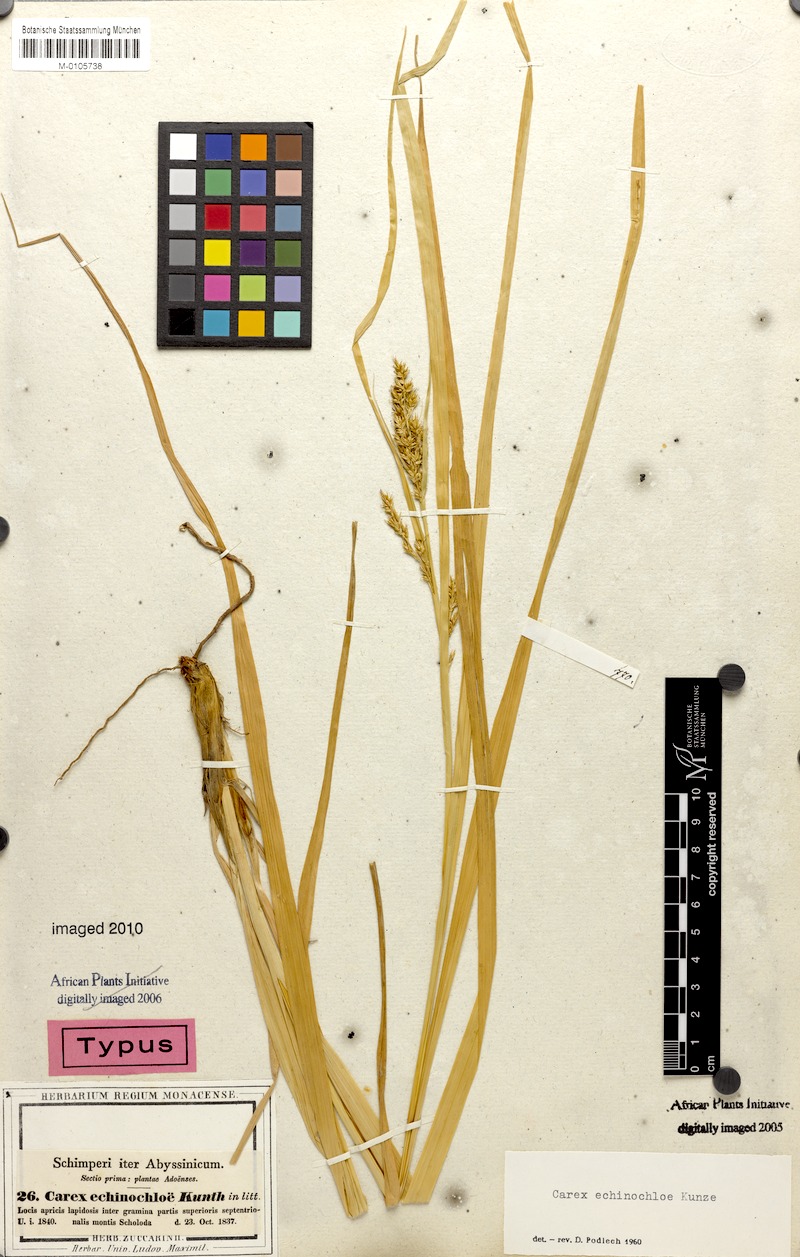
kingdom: Plantae
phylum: Tracheophyta
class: Liliopsida
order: Poales
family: Cyperaceae
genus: Carex
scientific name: Carex echinochloe
